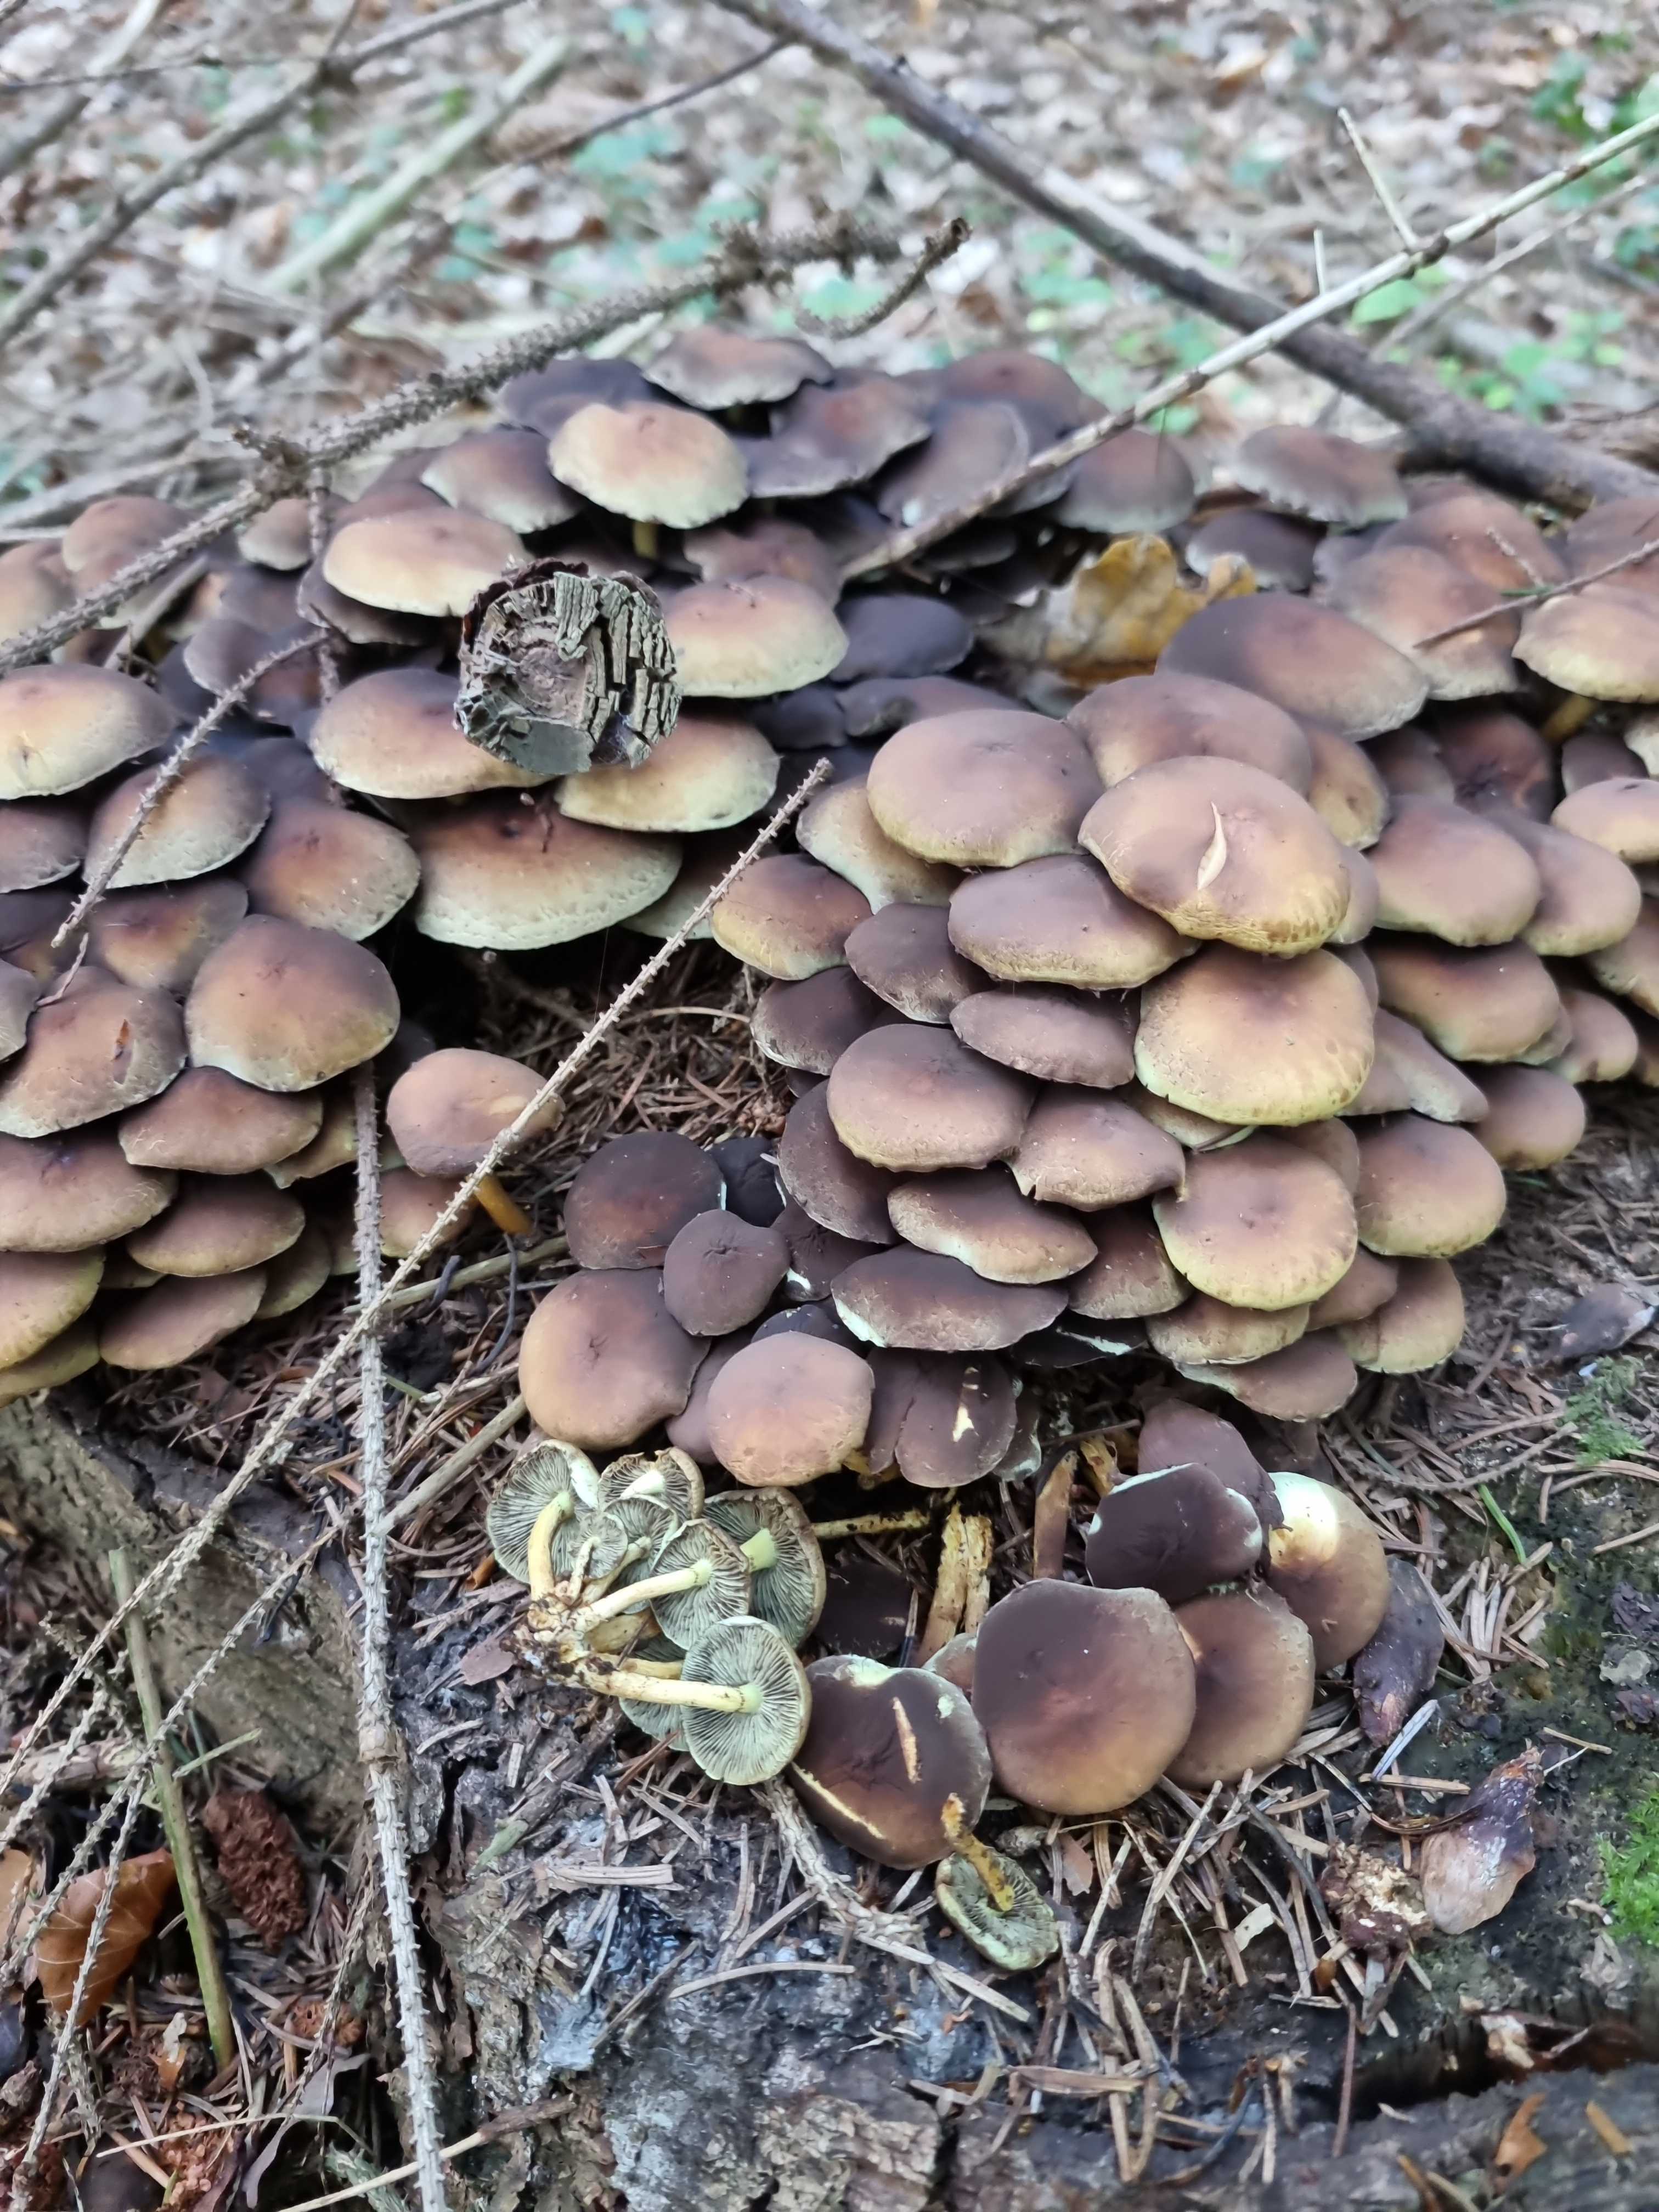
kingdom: Fungi
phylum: Basidiomycota
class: Agaricomycetes
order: Agaricales
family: Strophariaceae
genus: Hypholoma
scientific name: Hypholoma fasciculare
